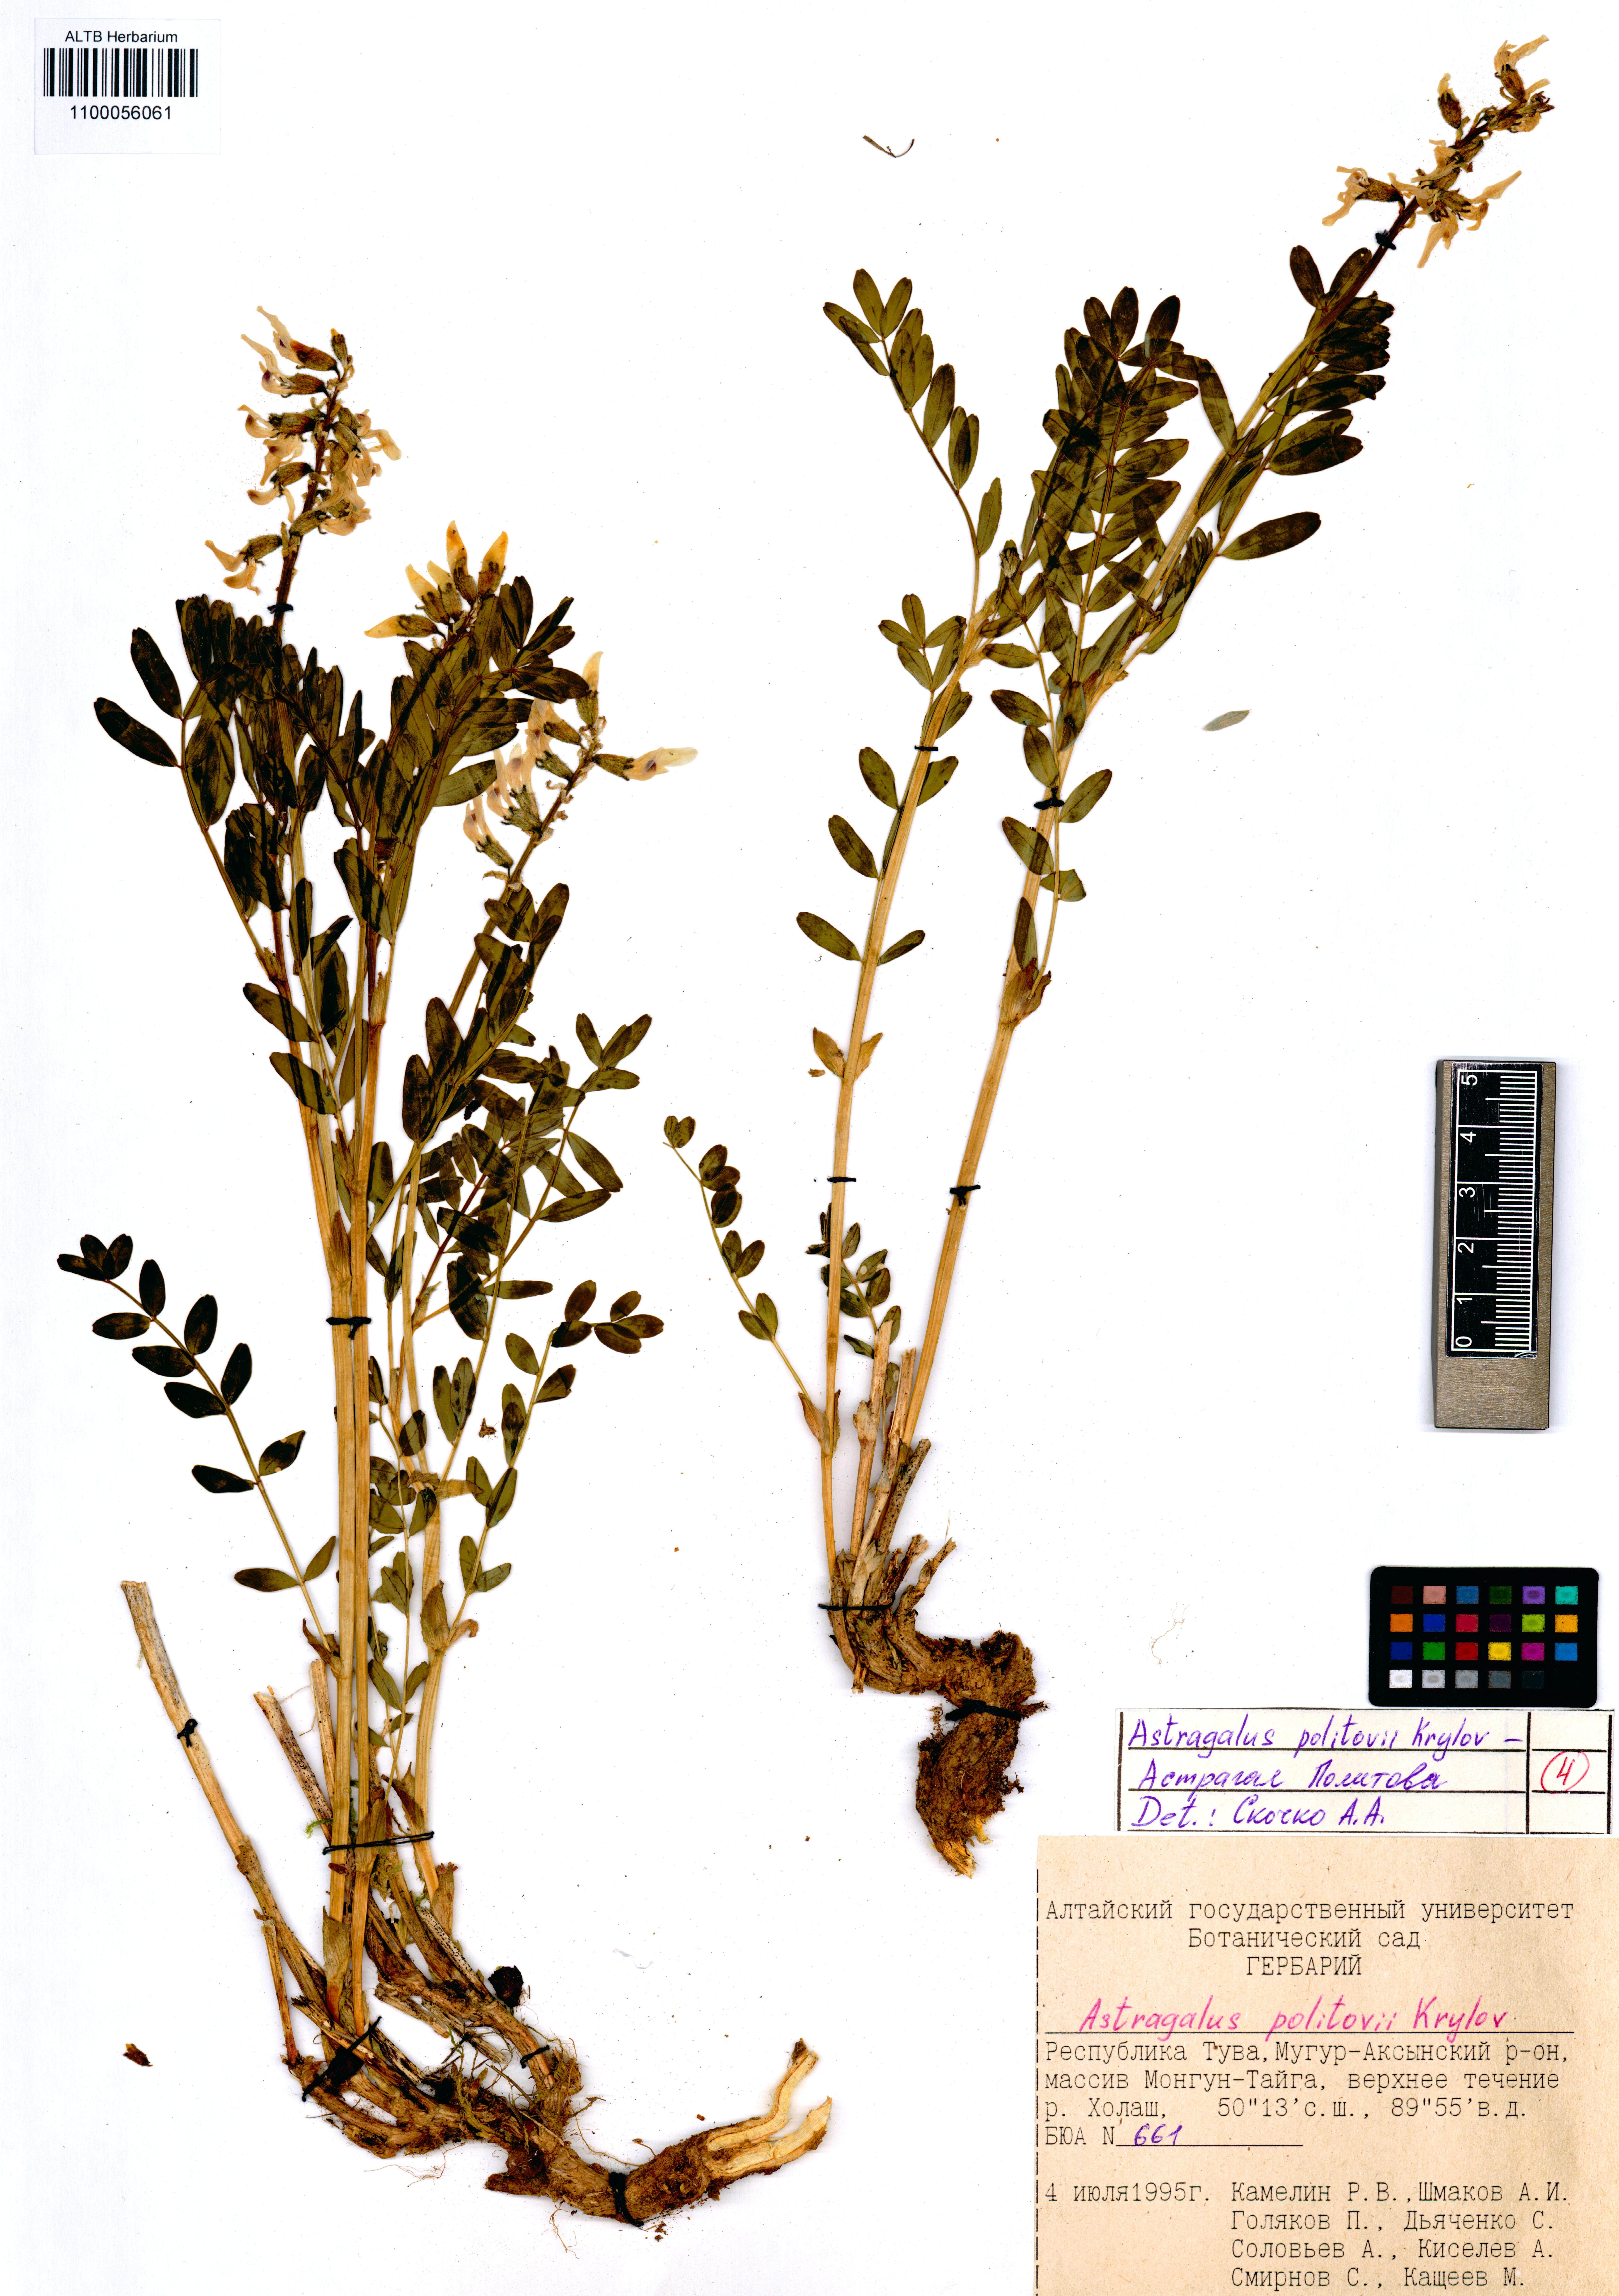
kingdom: Plantae
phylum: Tracheophyta
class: Magnoliopsida
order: Fabales
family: Fabaceae
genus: Astragalus
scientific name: Astragalus politovii
